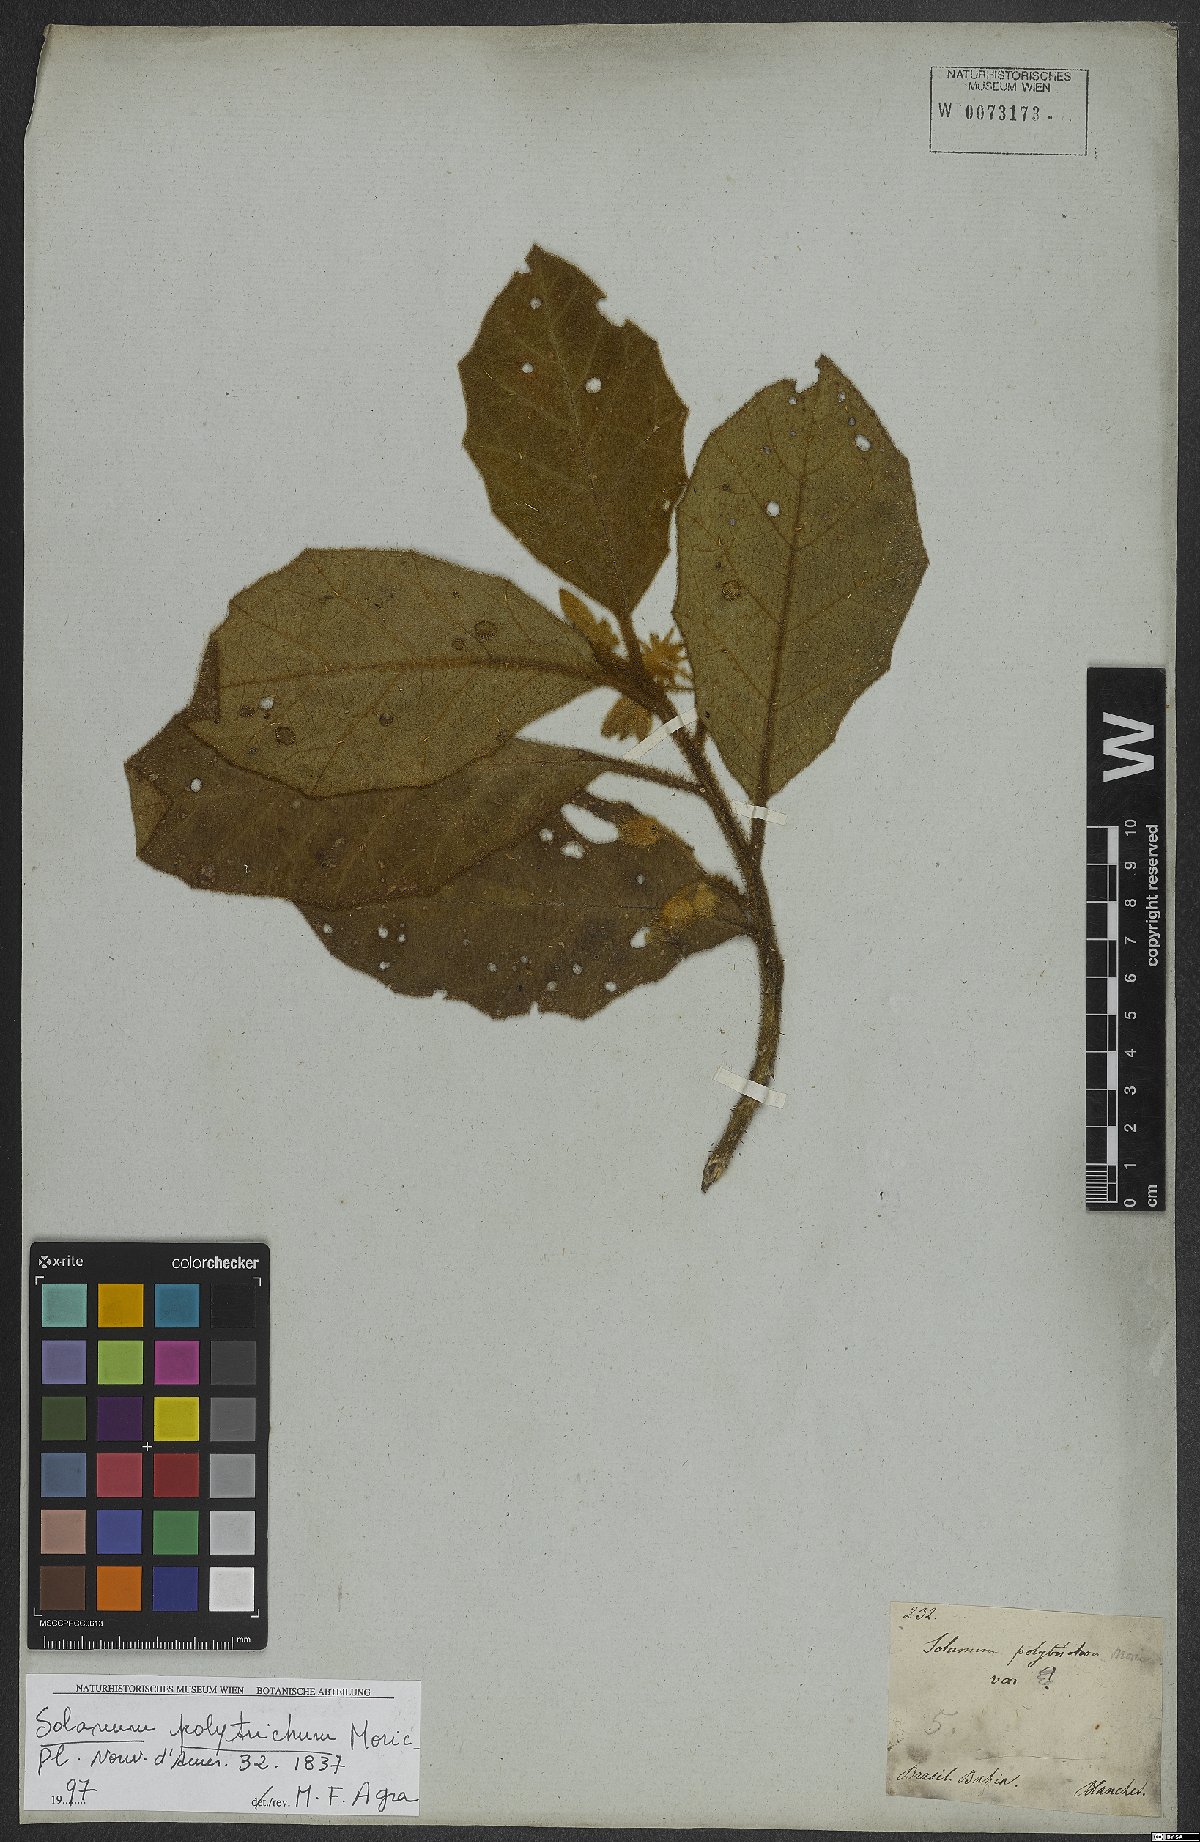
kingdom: Plantae
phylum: Tracheophyta
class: Magnoliopsida
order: Solanales
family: Solanaceae
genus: Solanum
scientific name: Solanum polytrichum
